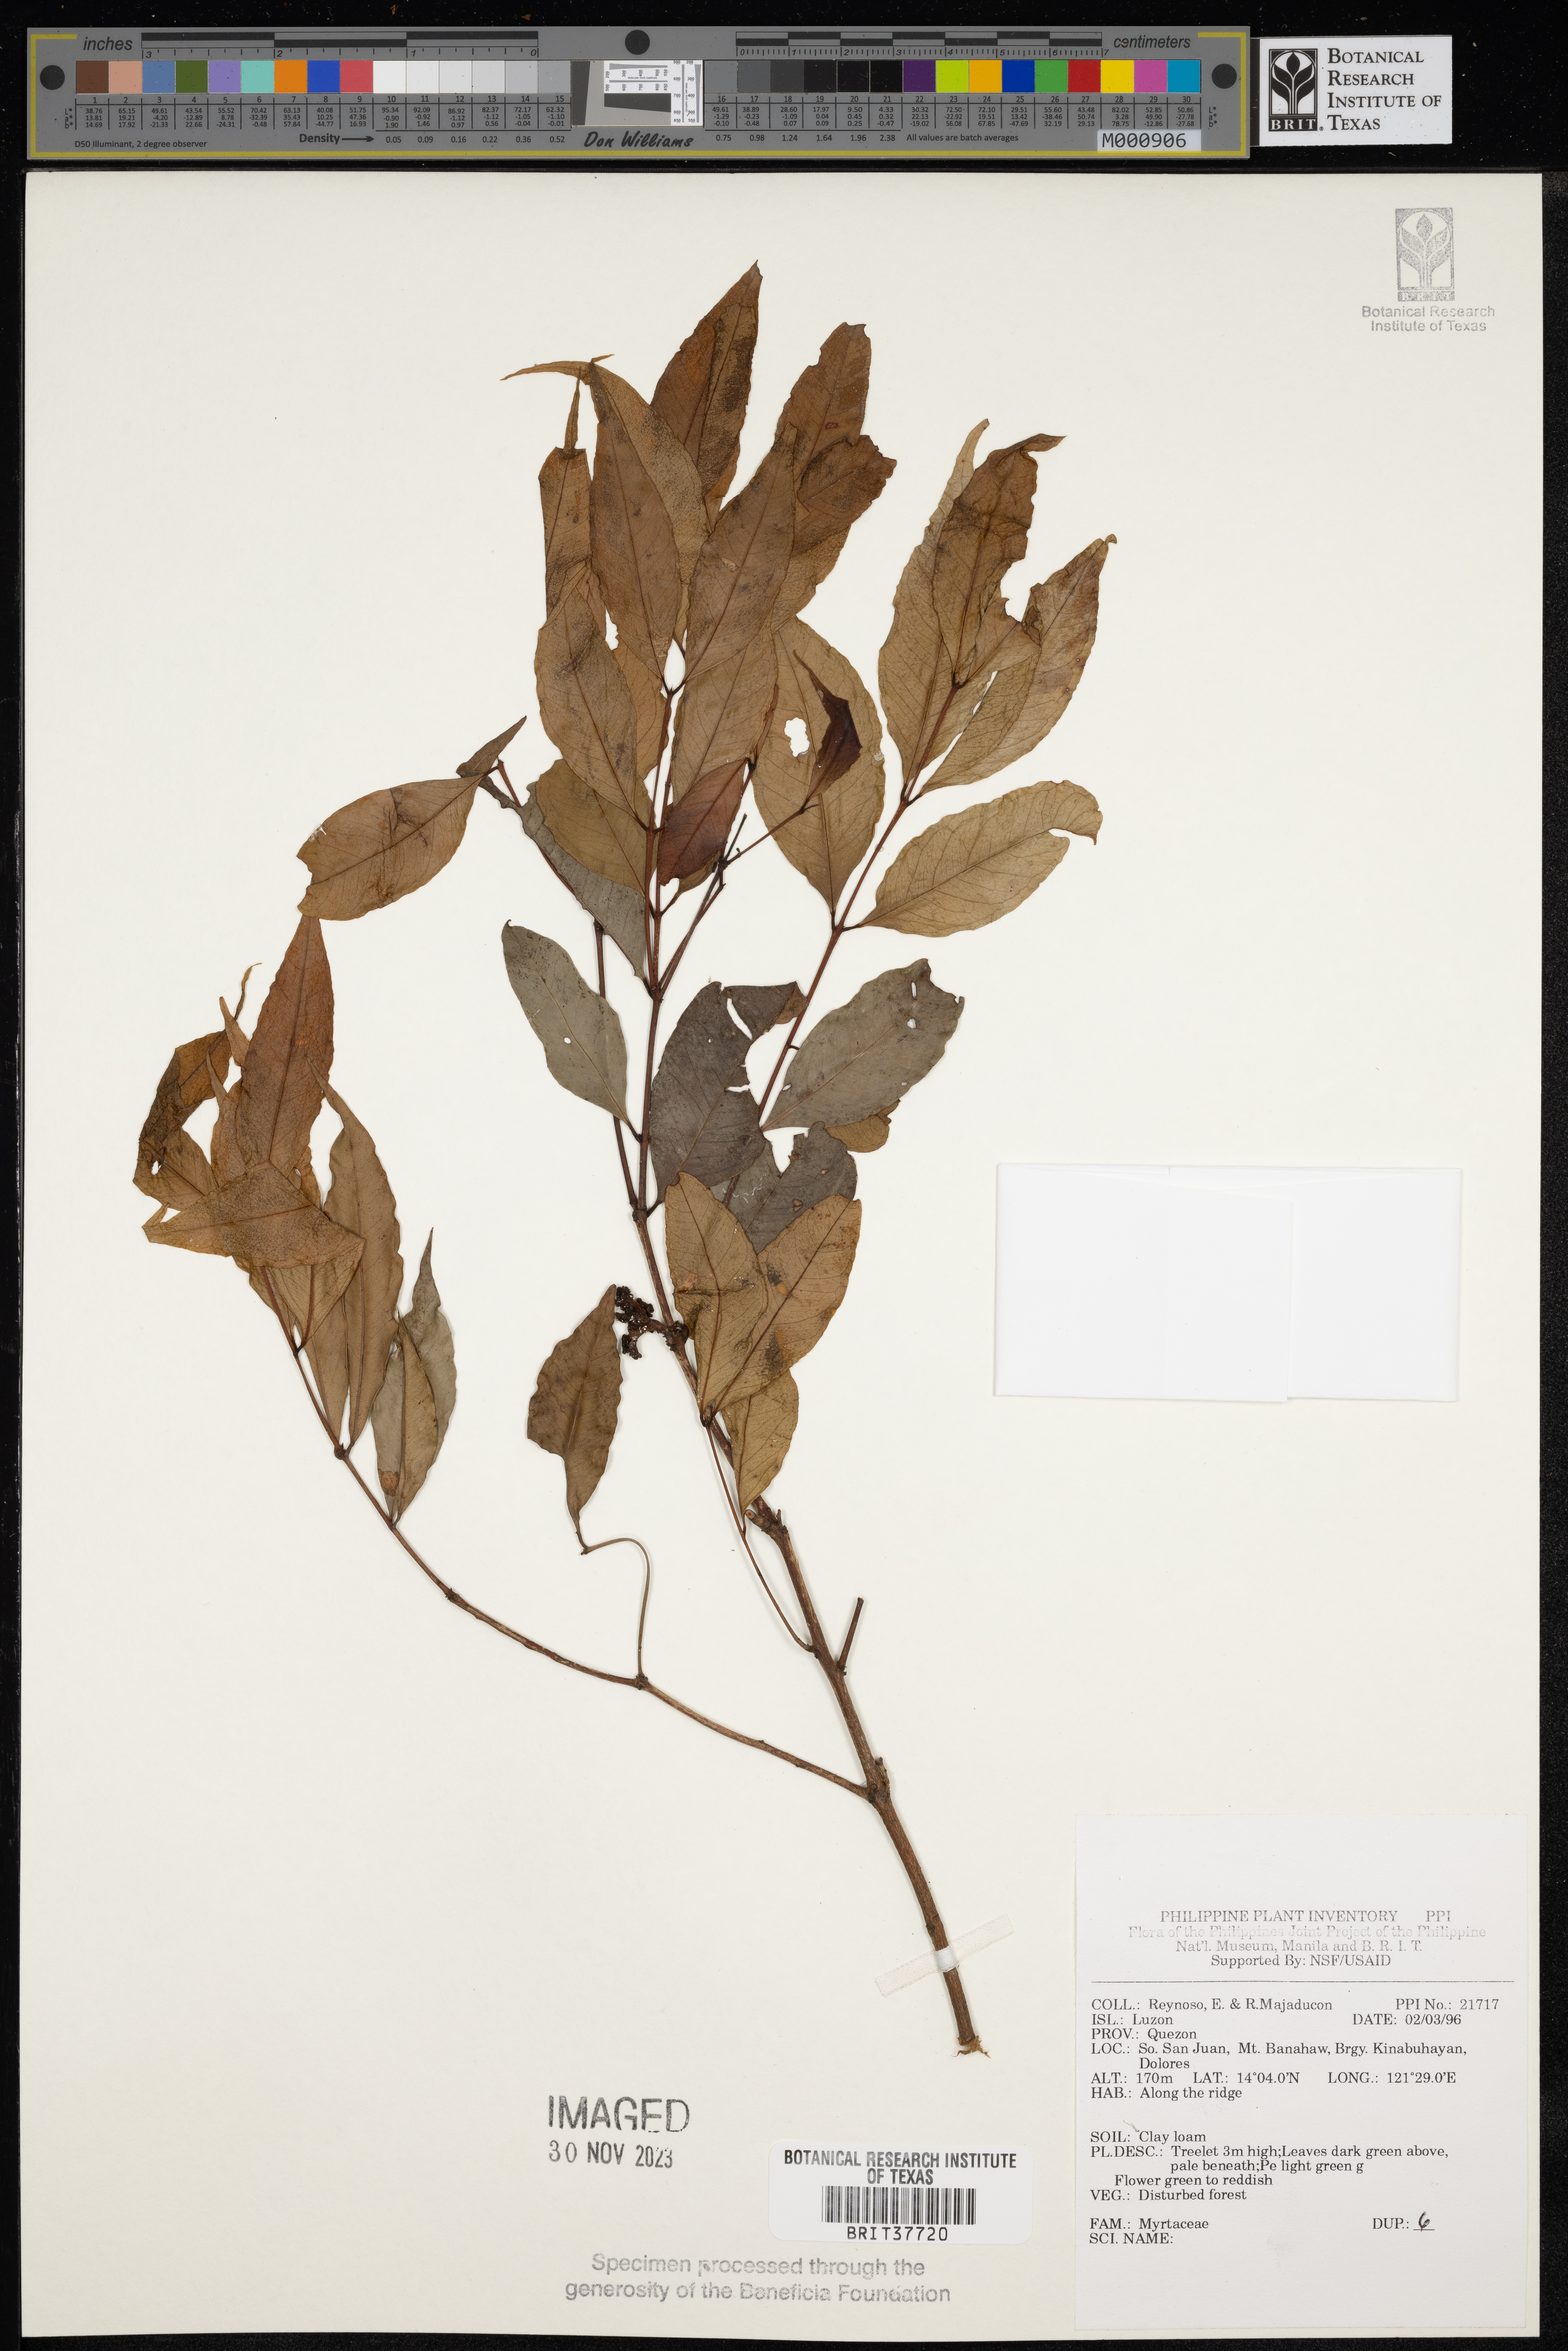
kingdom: Plantae
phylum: Tracheophyta
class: Magnoliopsida
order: Myrtales
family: Myrtaceae
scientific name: Myrtaceae
